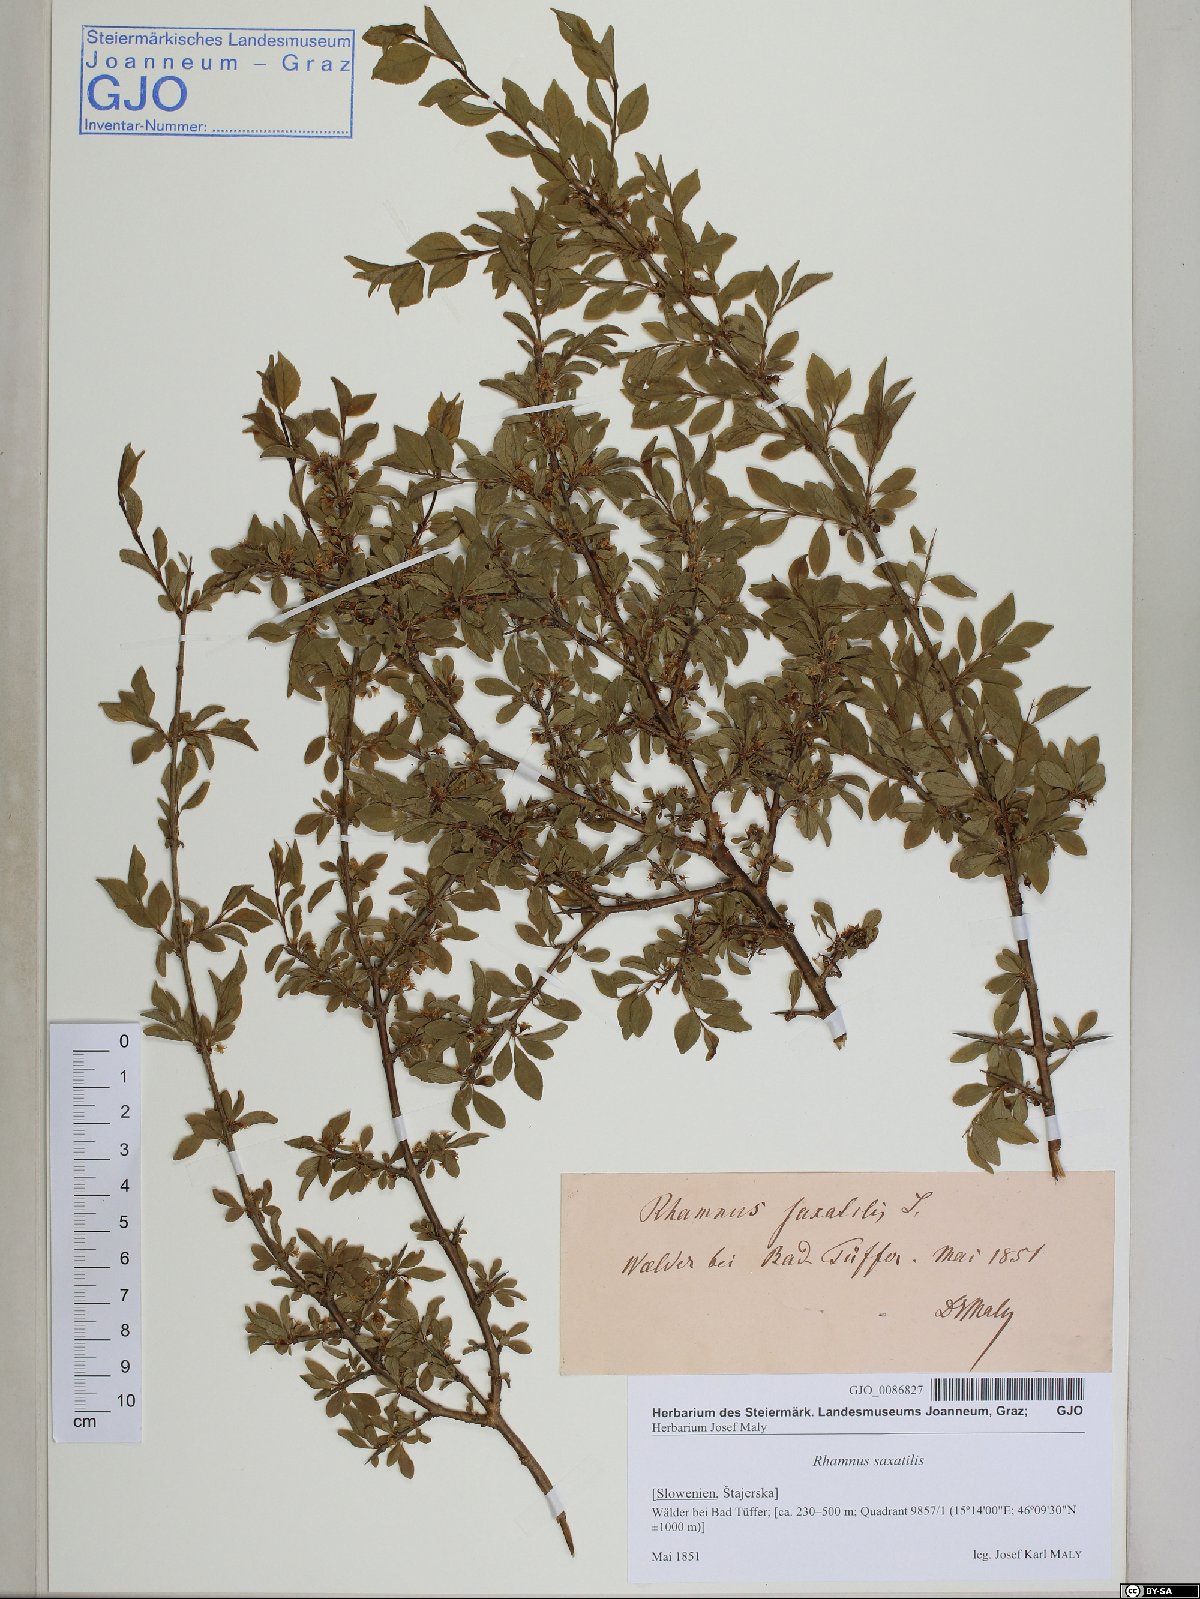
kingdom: Plantae
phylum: Tracheophyta
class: Magnoliopsida
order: Rosales
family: Rhamnaceae
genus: Rhamnus
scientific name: Rhamnus saxatilis
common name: Rock buckthorn
